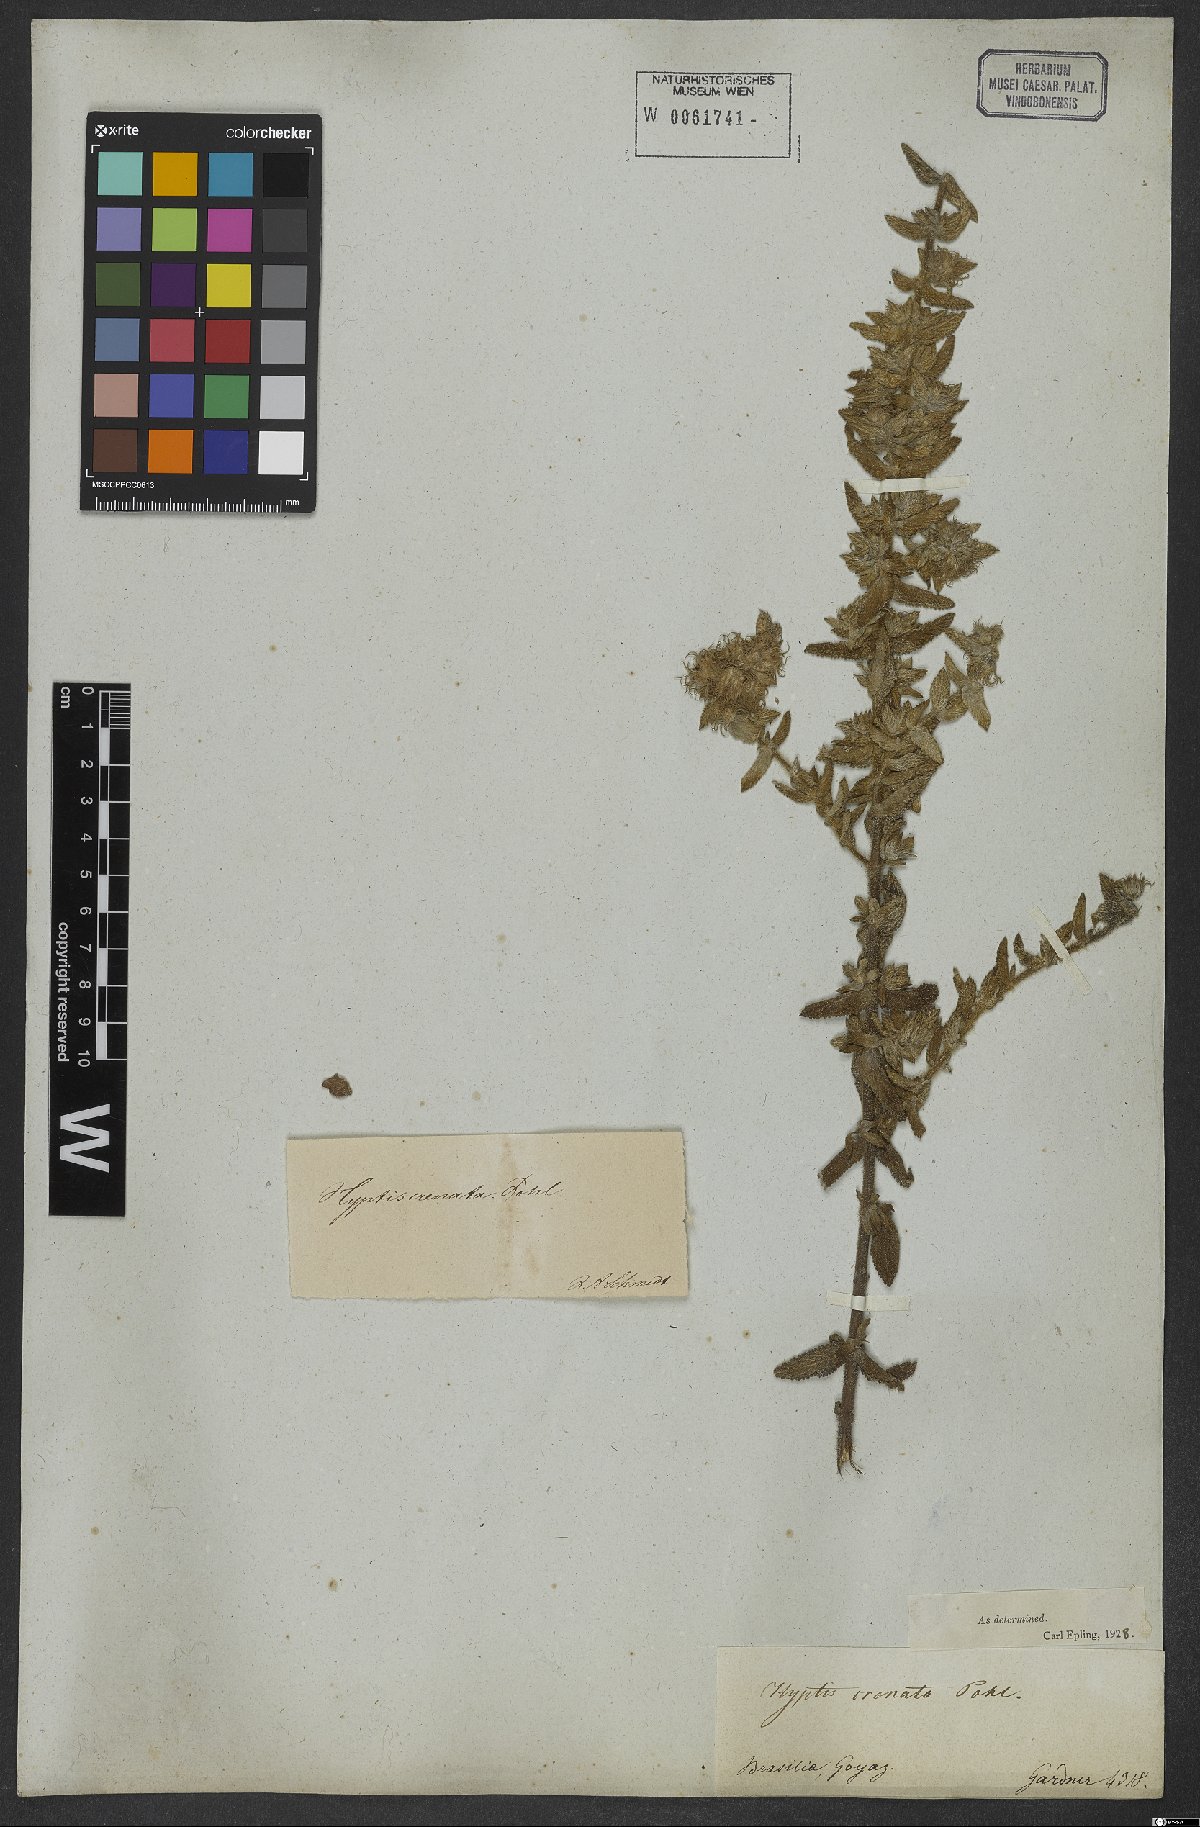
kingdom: Plantae
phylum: Tracheophyta
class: Magnoliopsida
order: Lamiales
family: Lamiaceae
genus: Hyptis
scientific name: Hyptis crenata
